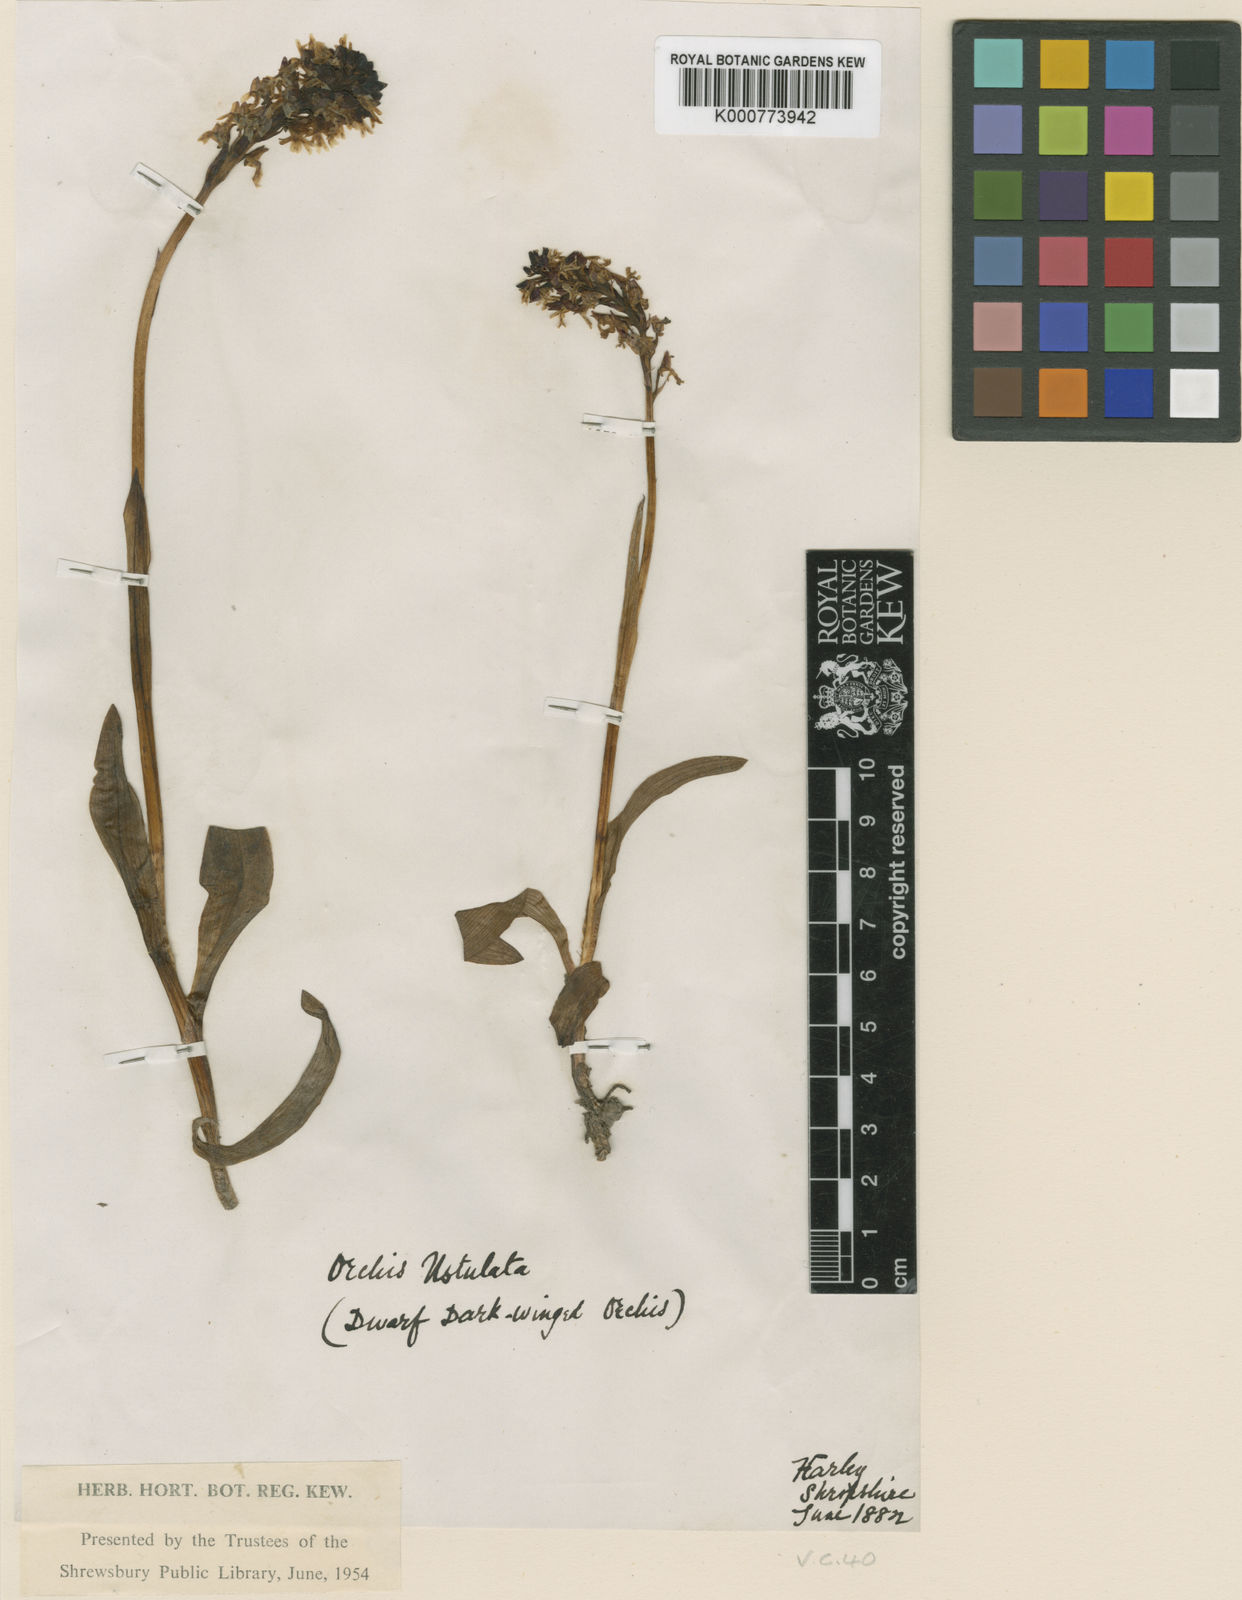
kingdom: Plantae
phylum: Tracheophyta
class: Liliopsida
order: Asparagales
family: Orchidaceae
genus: Neotinea
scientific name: Neotinea ustulata
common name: Burnt orchid
